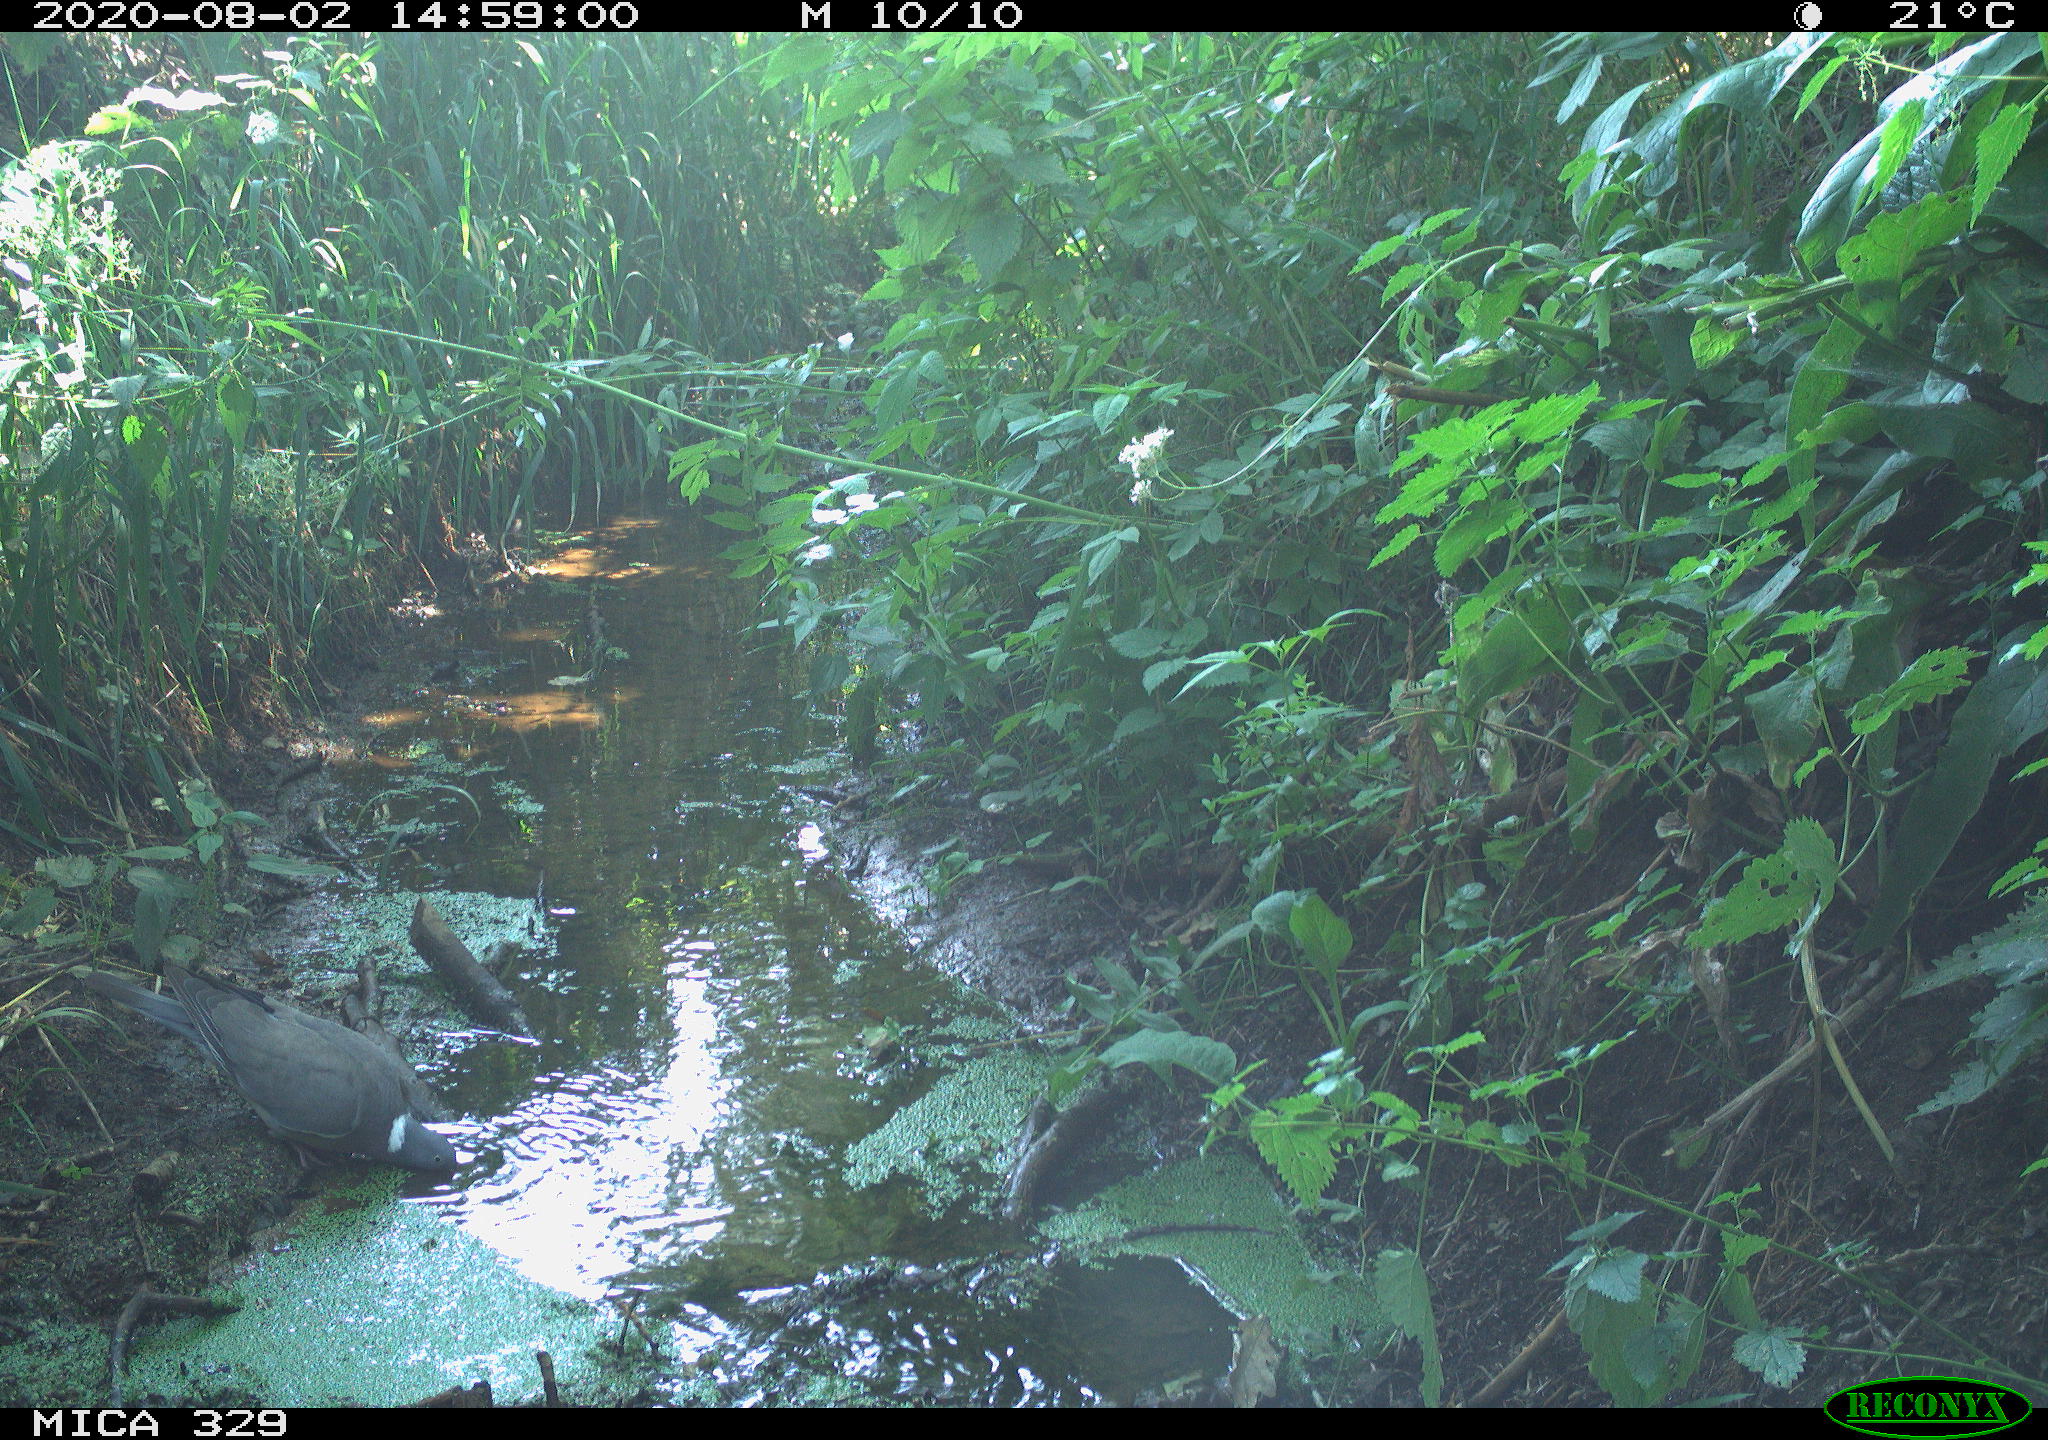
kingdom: Animalia
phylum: Chordata
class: Aves
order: Columbiformes
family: Columbidae
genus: Columba
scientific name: Columba palumbus
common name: Common wood pigeon
